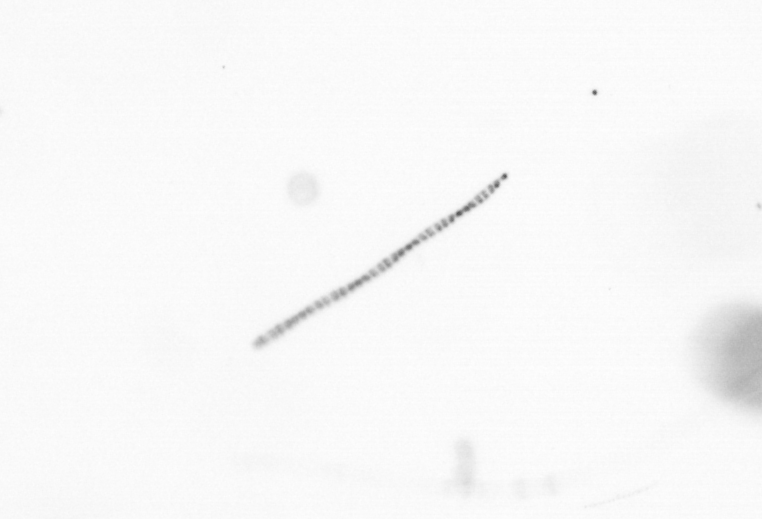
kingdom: Chromista
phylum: Ochrophyta
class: Bacillariophyceae
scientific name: Bacillariophyceae
